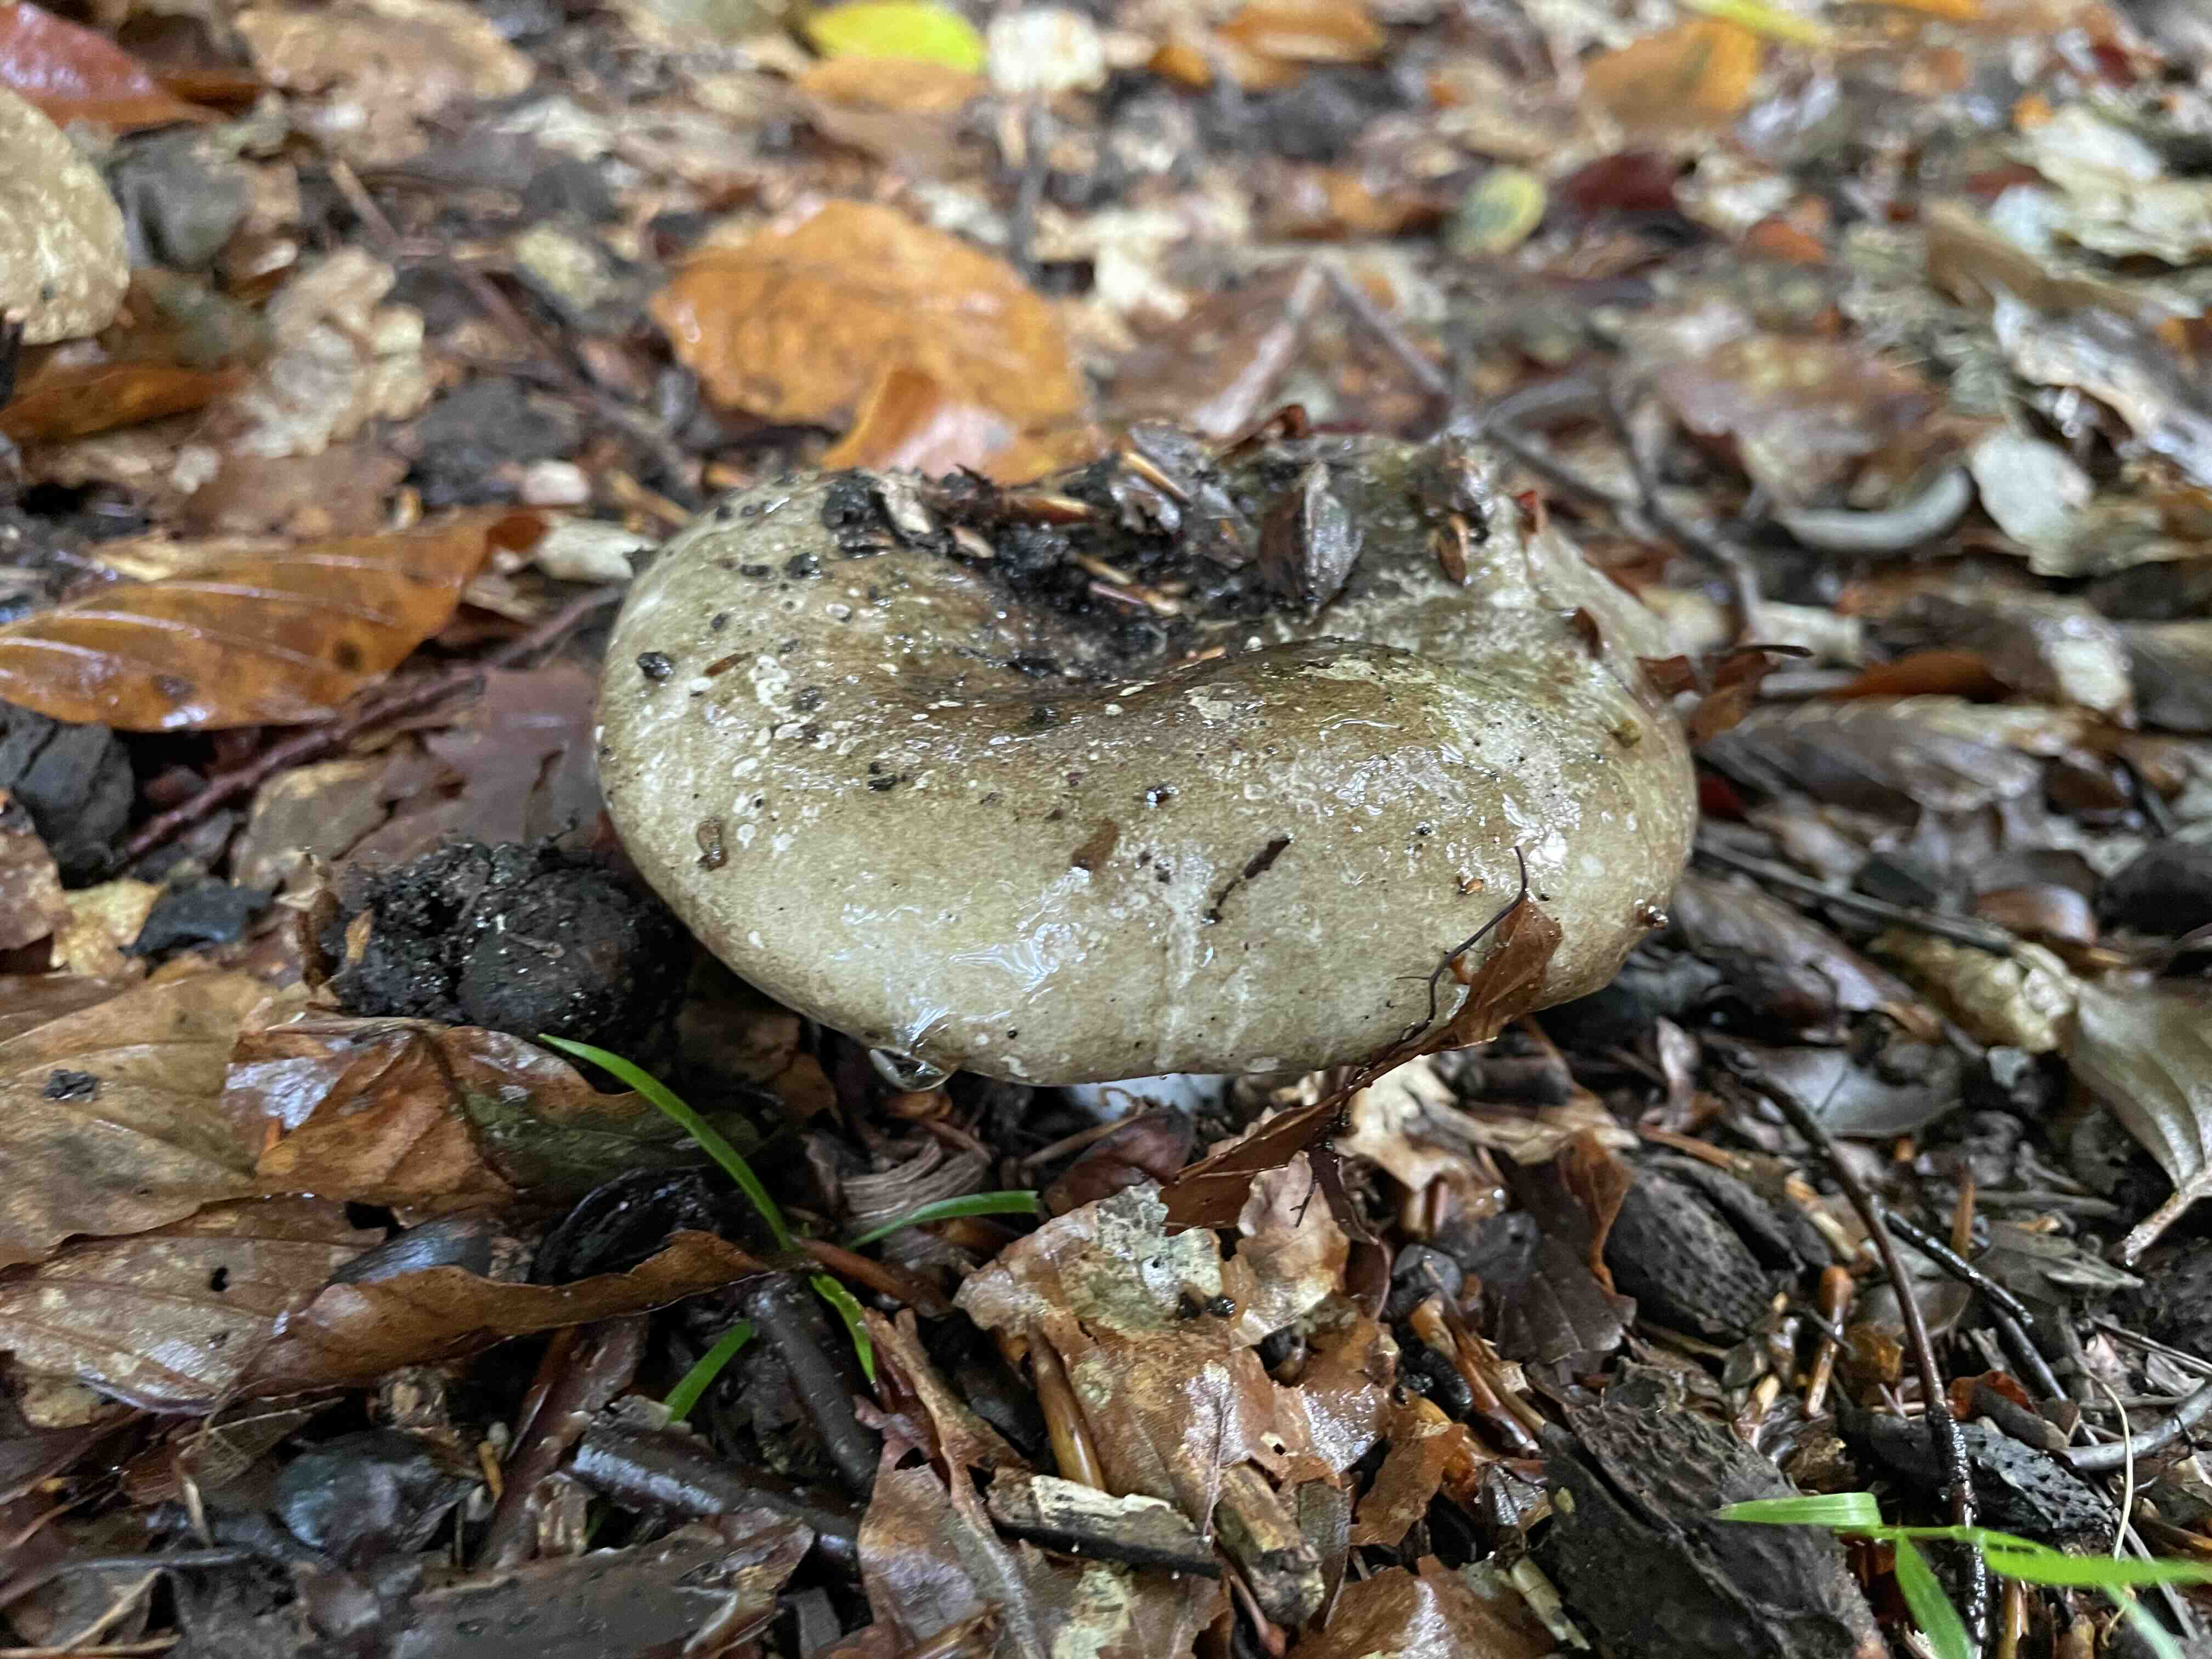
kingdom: Fungi
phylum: Basidiomycota
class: Agaricomycetes
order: Russulales
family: Russulaceae
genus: Russula
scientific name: Russula adusta
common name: sværtende skørhat
